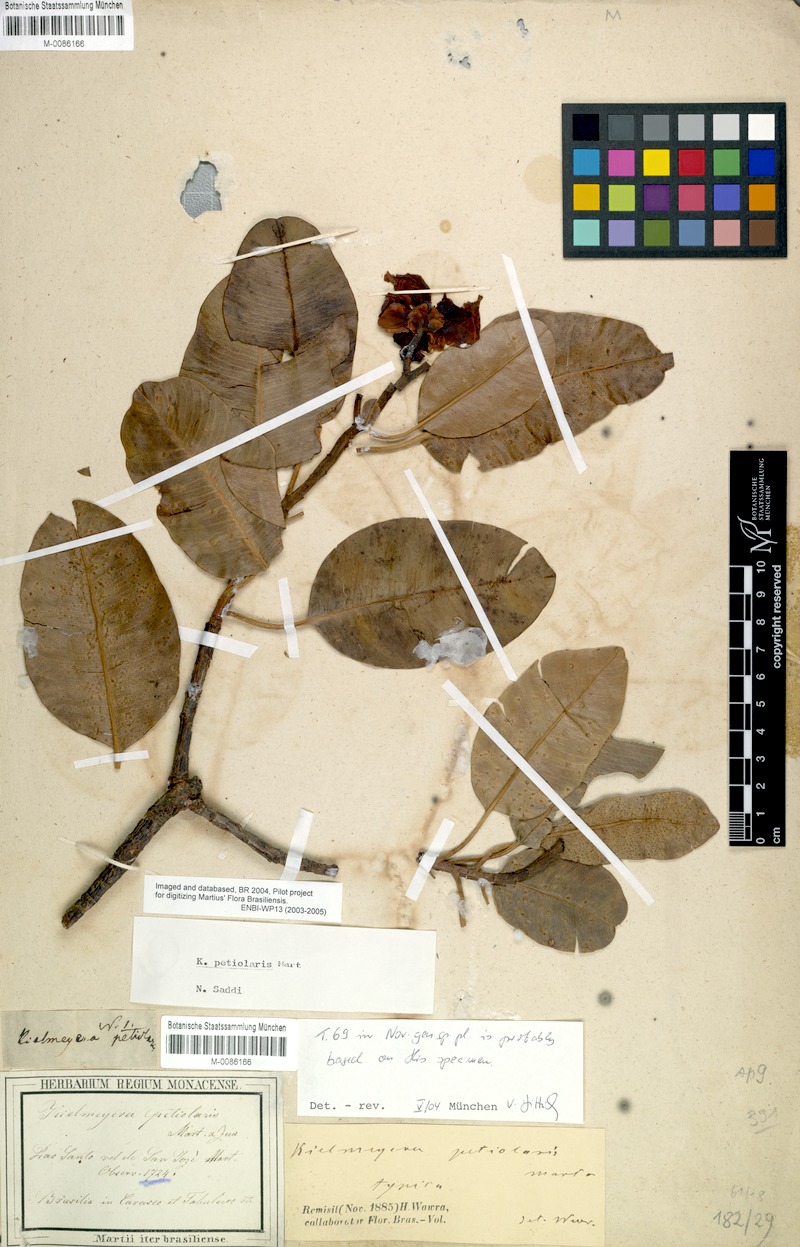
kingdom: Plantae
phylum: Tracheophyta
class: Magnoliopsida
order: Malpighiales
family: Calophyllaceae
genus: Kielmeyera
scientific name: Kielmeyera petiolaris
